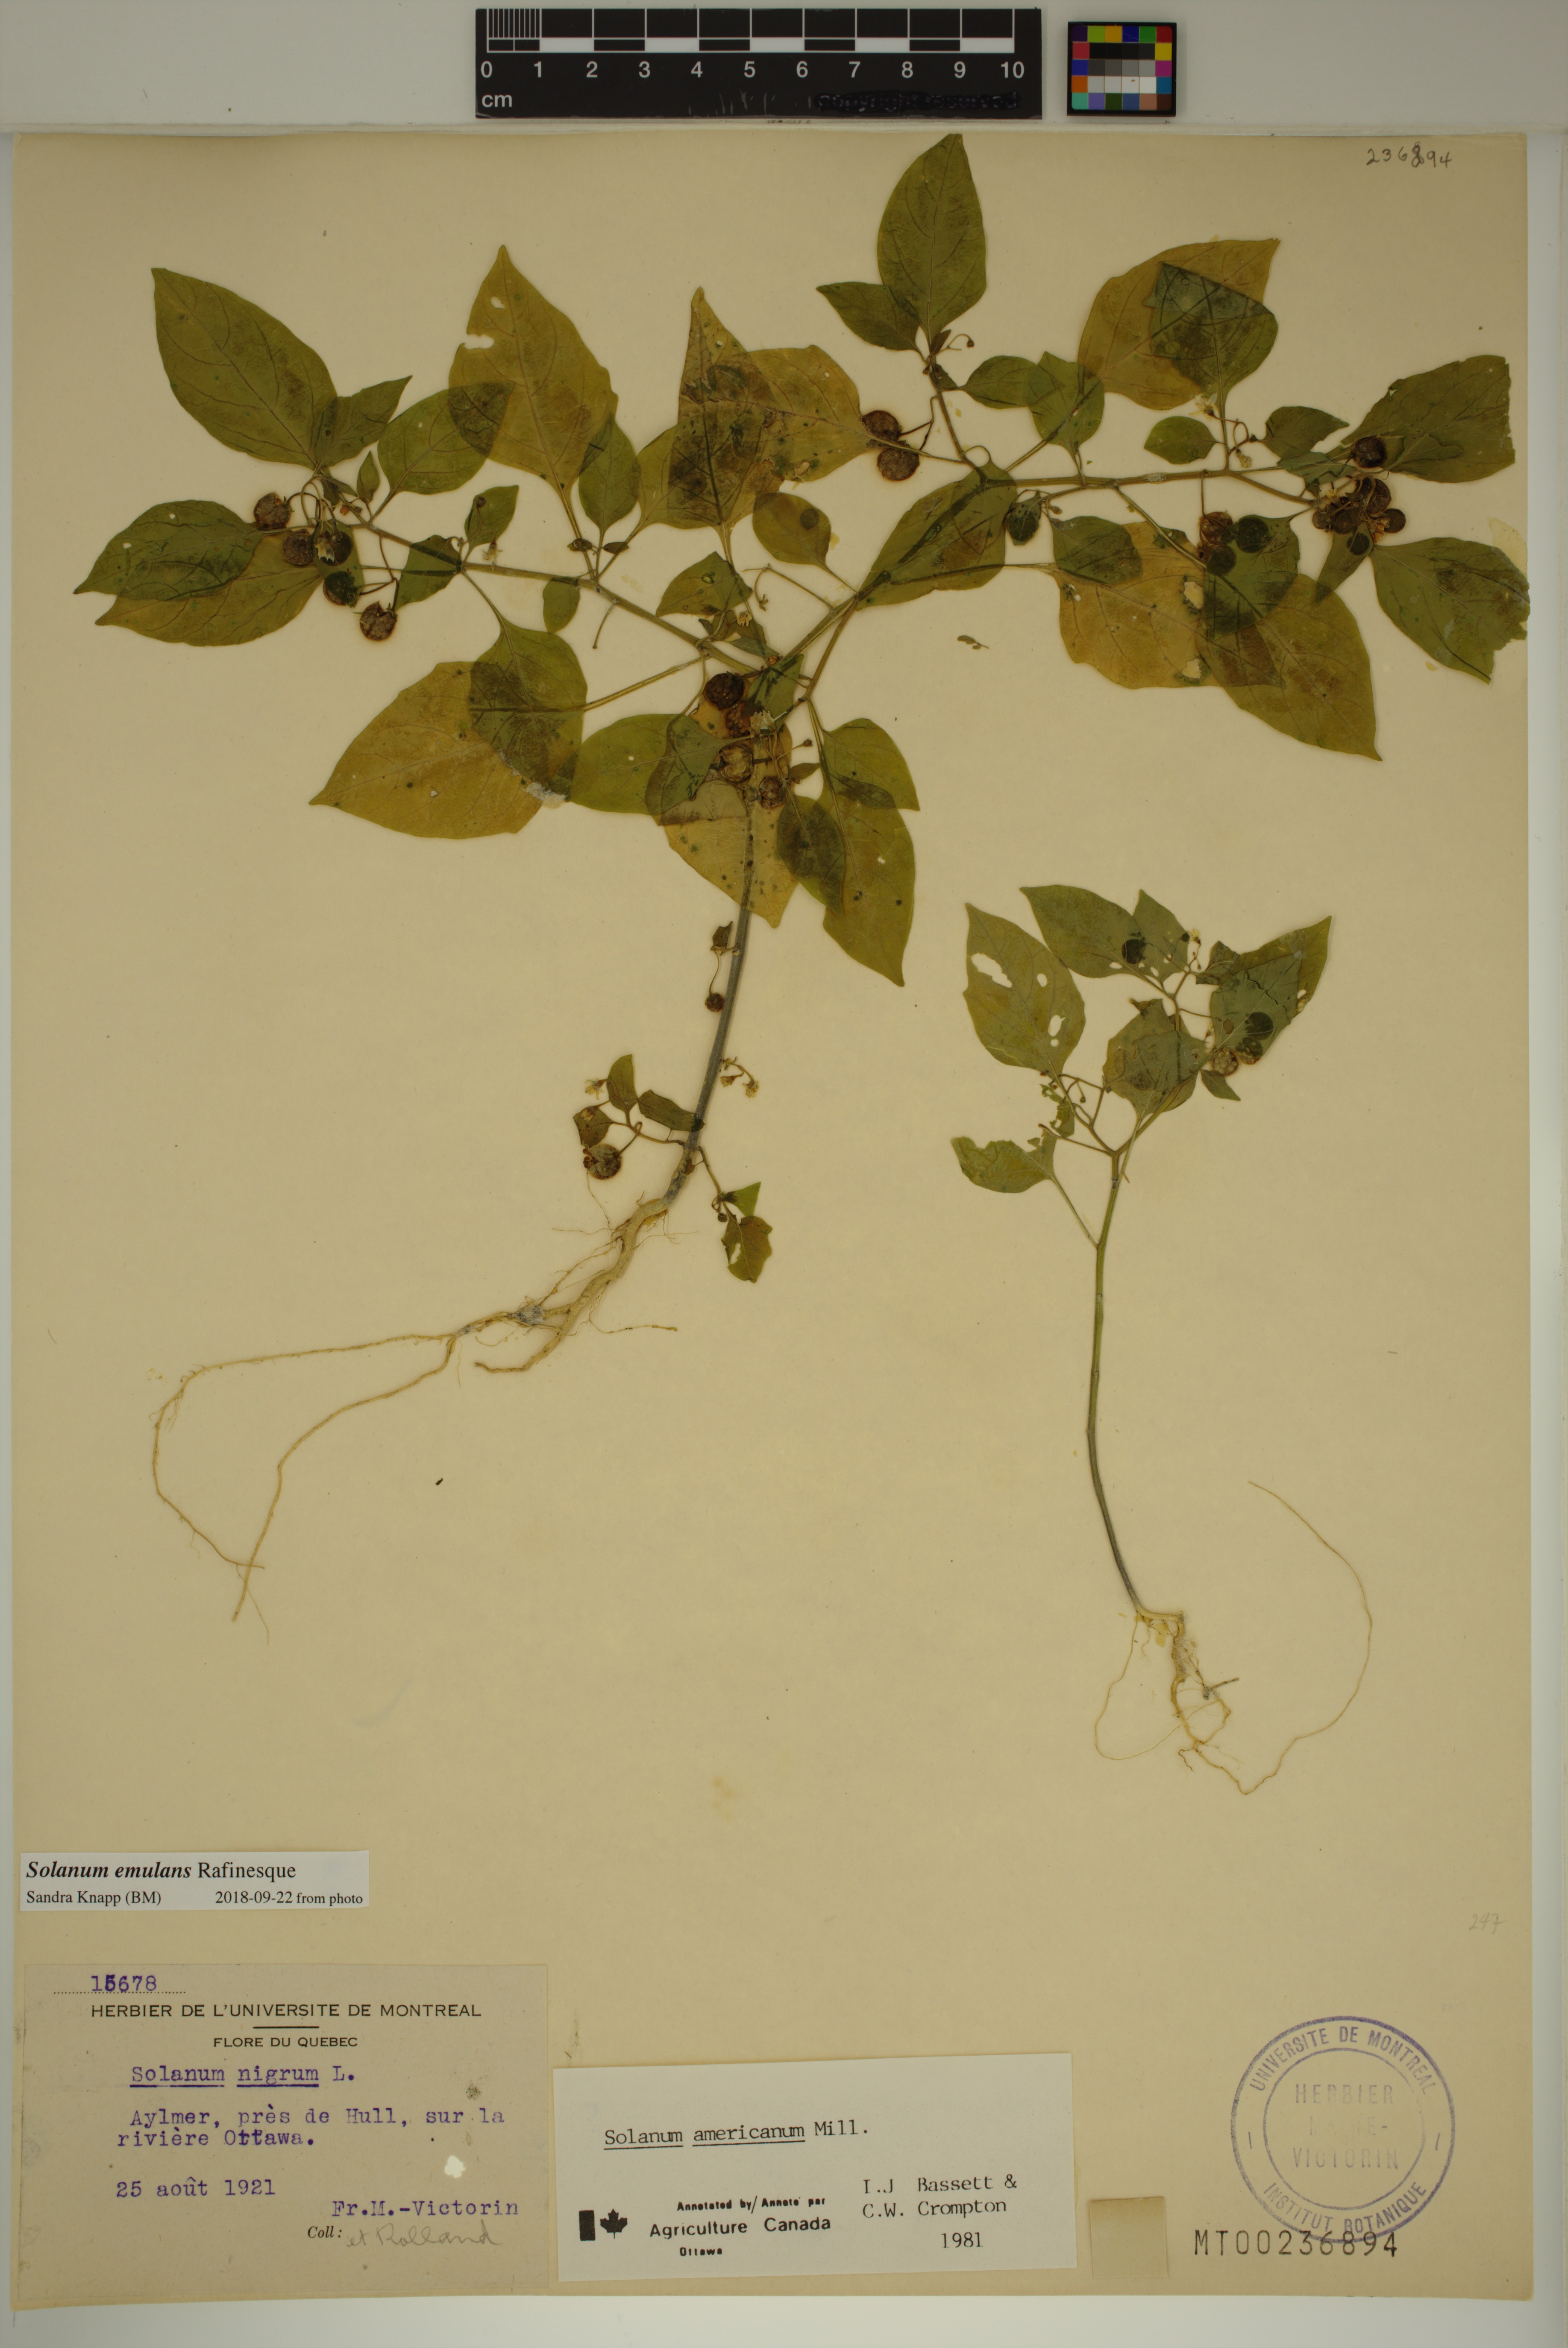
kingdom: Plantae
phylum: Tracheophyta
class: Magnoliopsida
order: Solanales
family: Solanaceae
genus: Solanum
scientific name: Solanum emulans
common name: Eastern black nightshade
